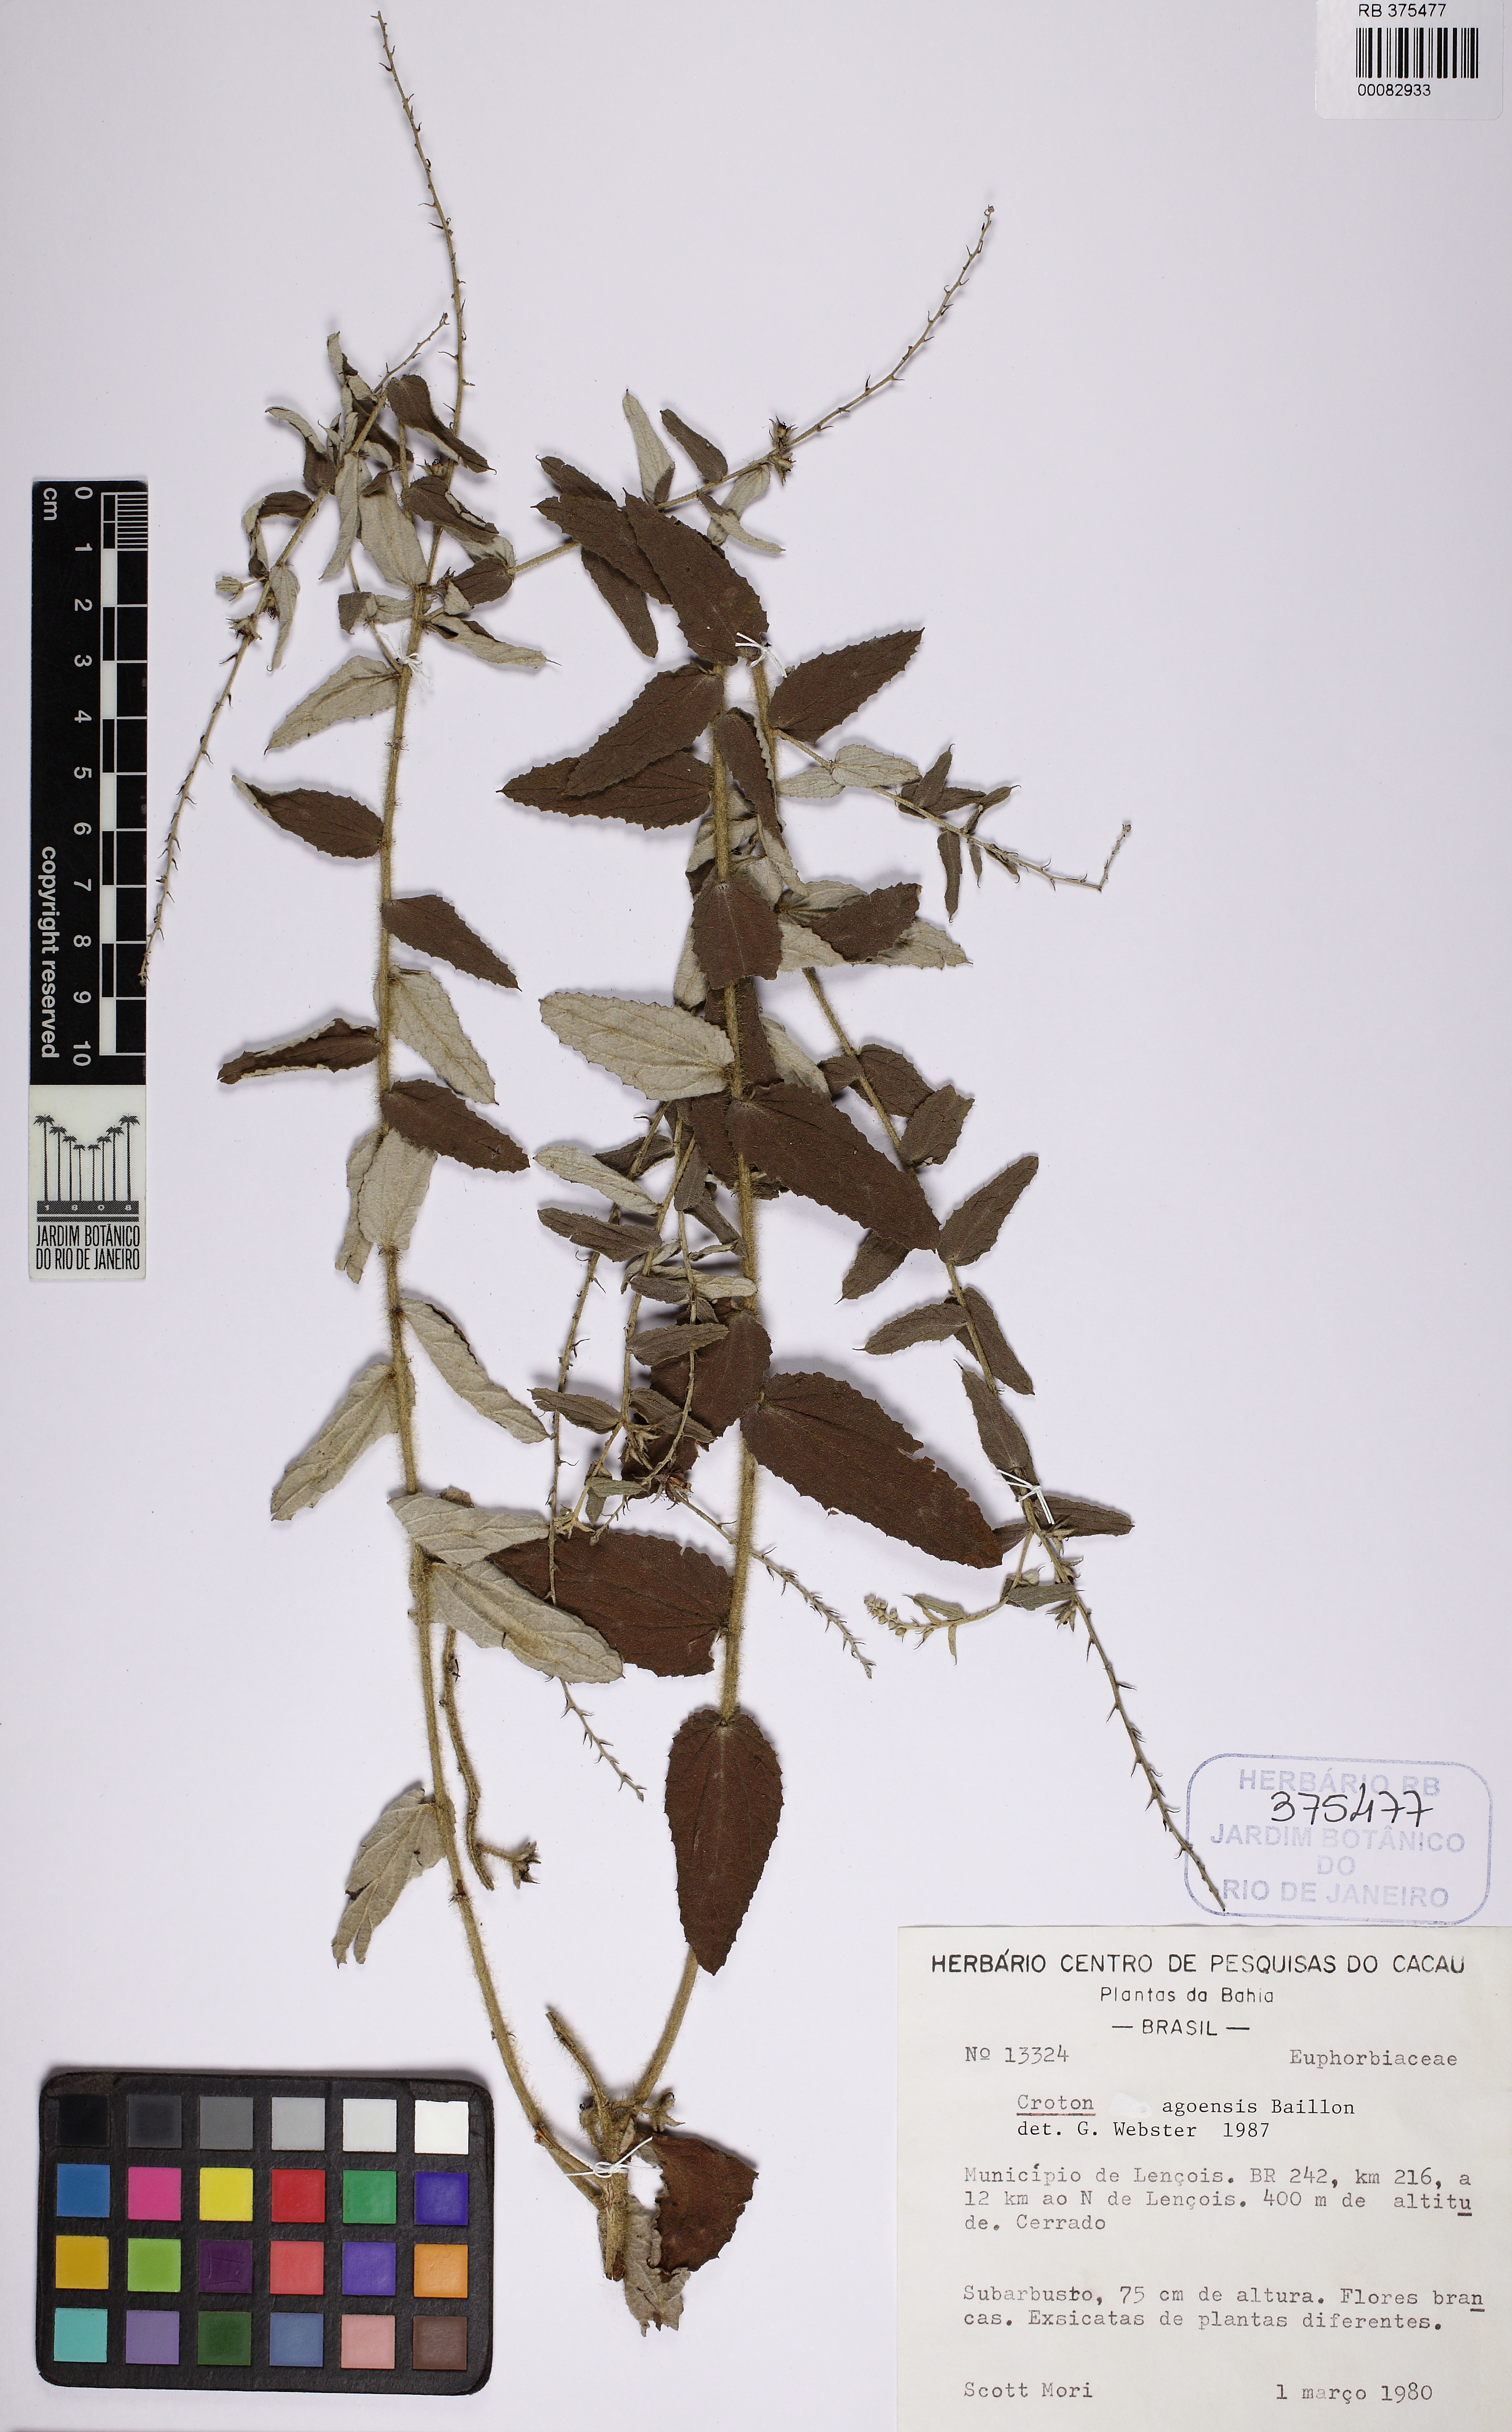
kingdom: Plantae
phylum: Tracheophyta
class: Magnoliopsida
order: Malpighiales
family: Euphorbiaceae
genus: Croton
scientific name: Croton agoensis
